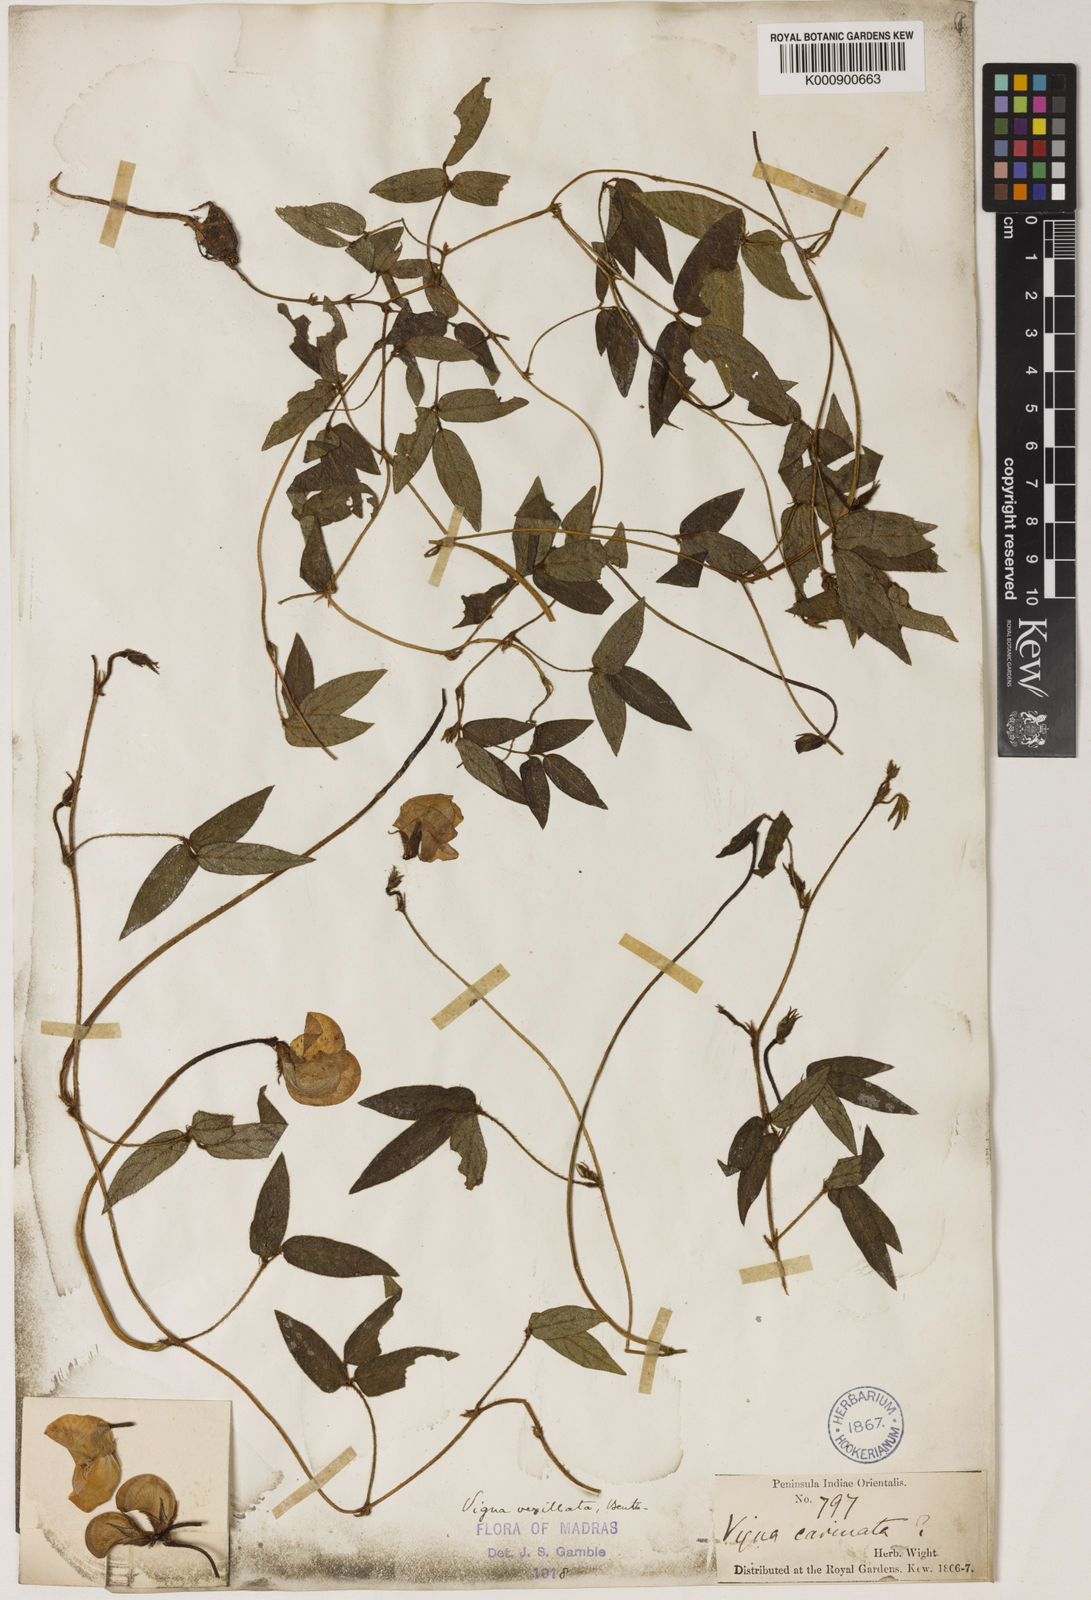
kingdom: Plantae
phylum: Tracheophyta
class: Magnoliopsida
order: Fabales
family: Fabaceae
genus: Vigna
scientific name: Vigna vexillata
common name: Zombi pea
